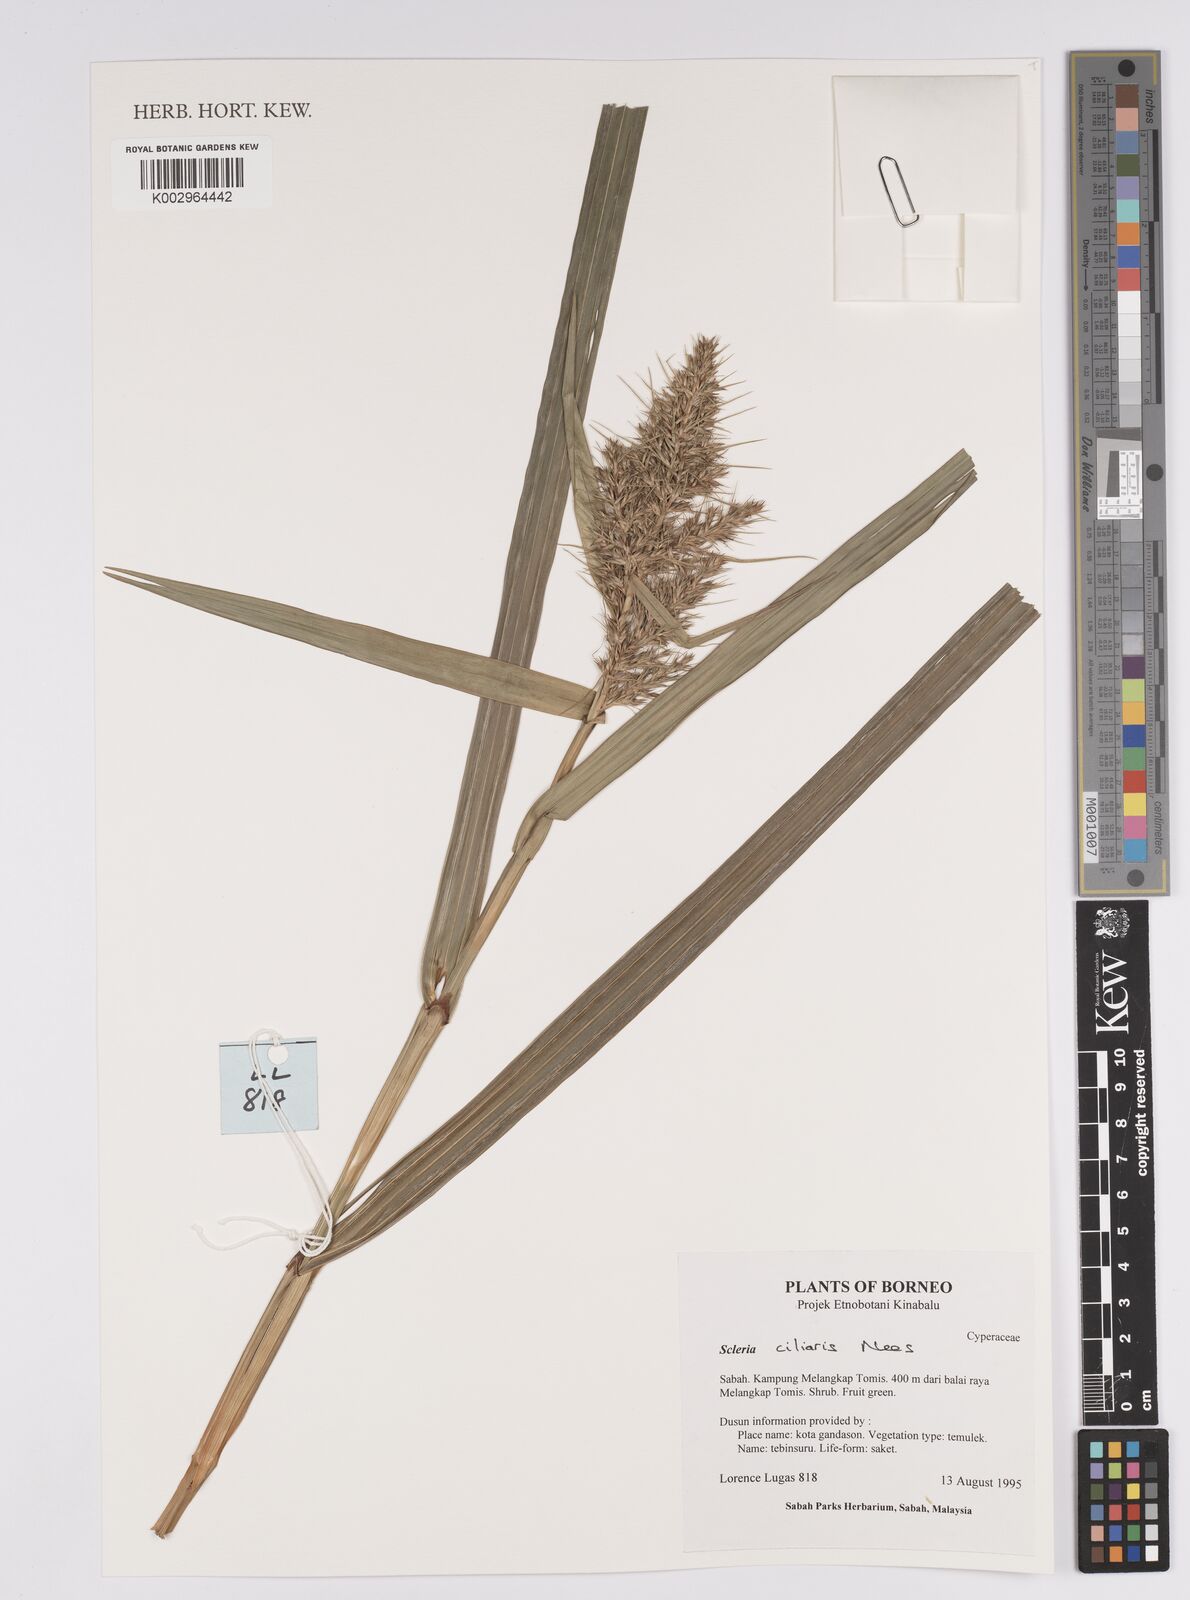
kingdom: Plantae
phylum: Tracheophyta
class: Liliopsida
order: Poales
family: Cyperaceae
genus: Scleria
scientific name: Scleria ciliaris
